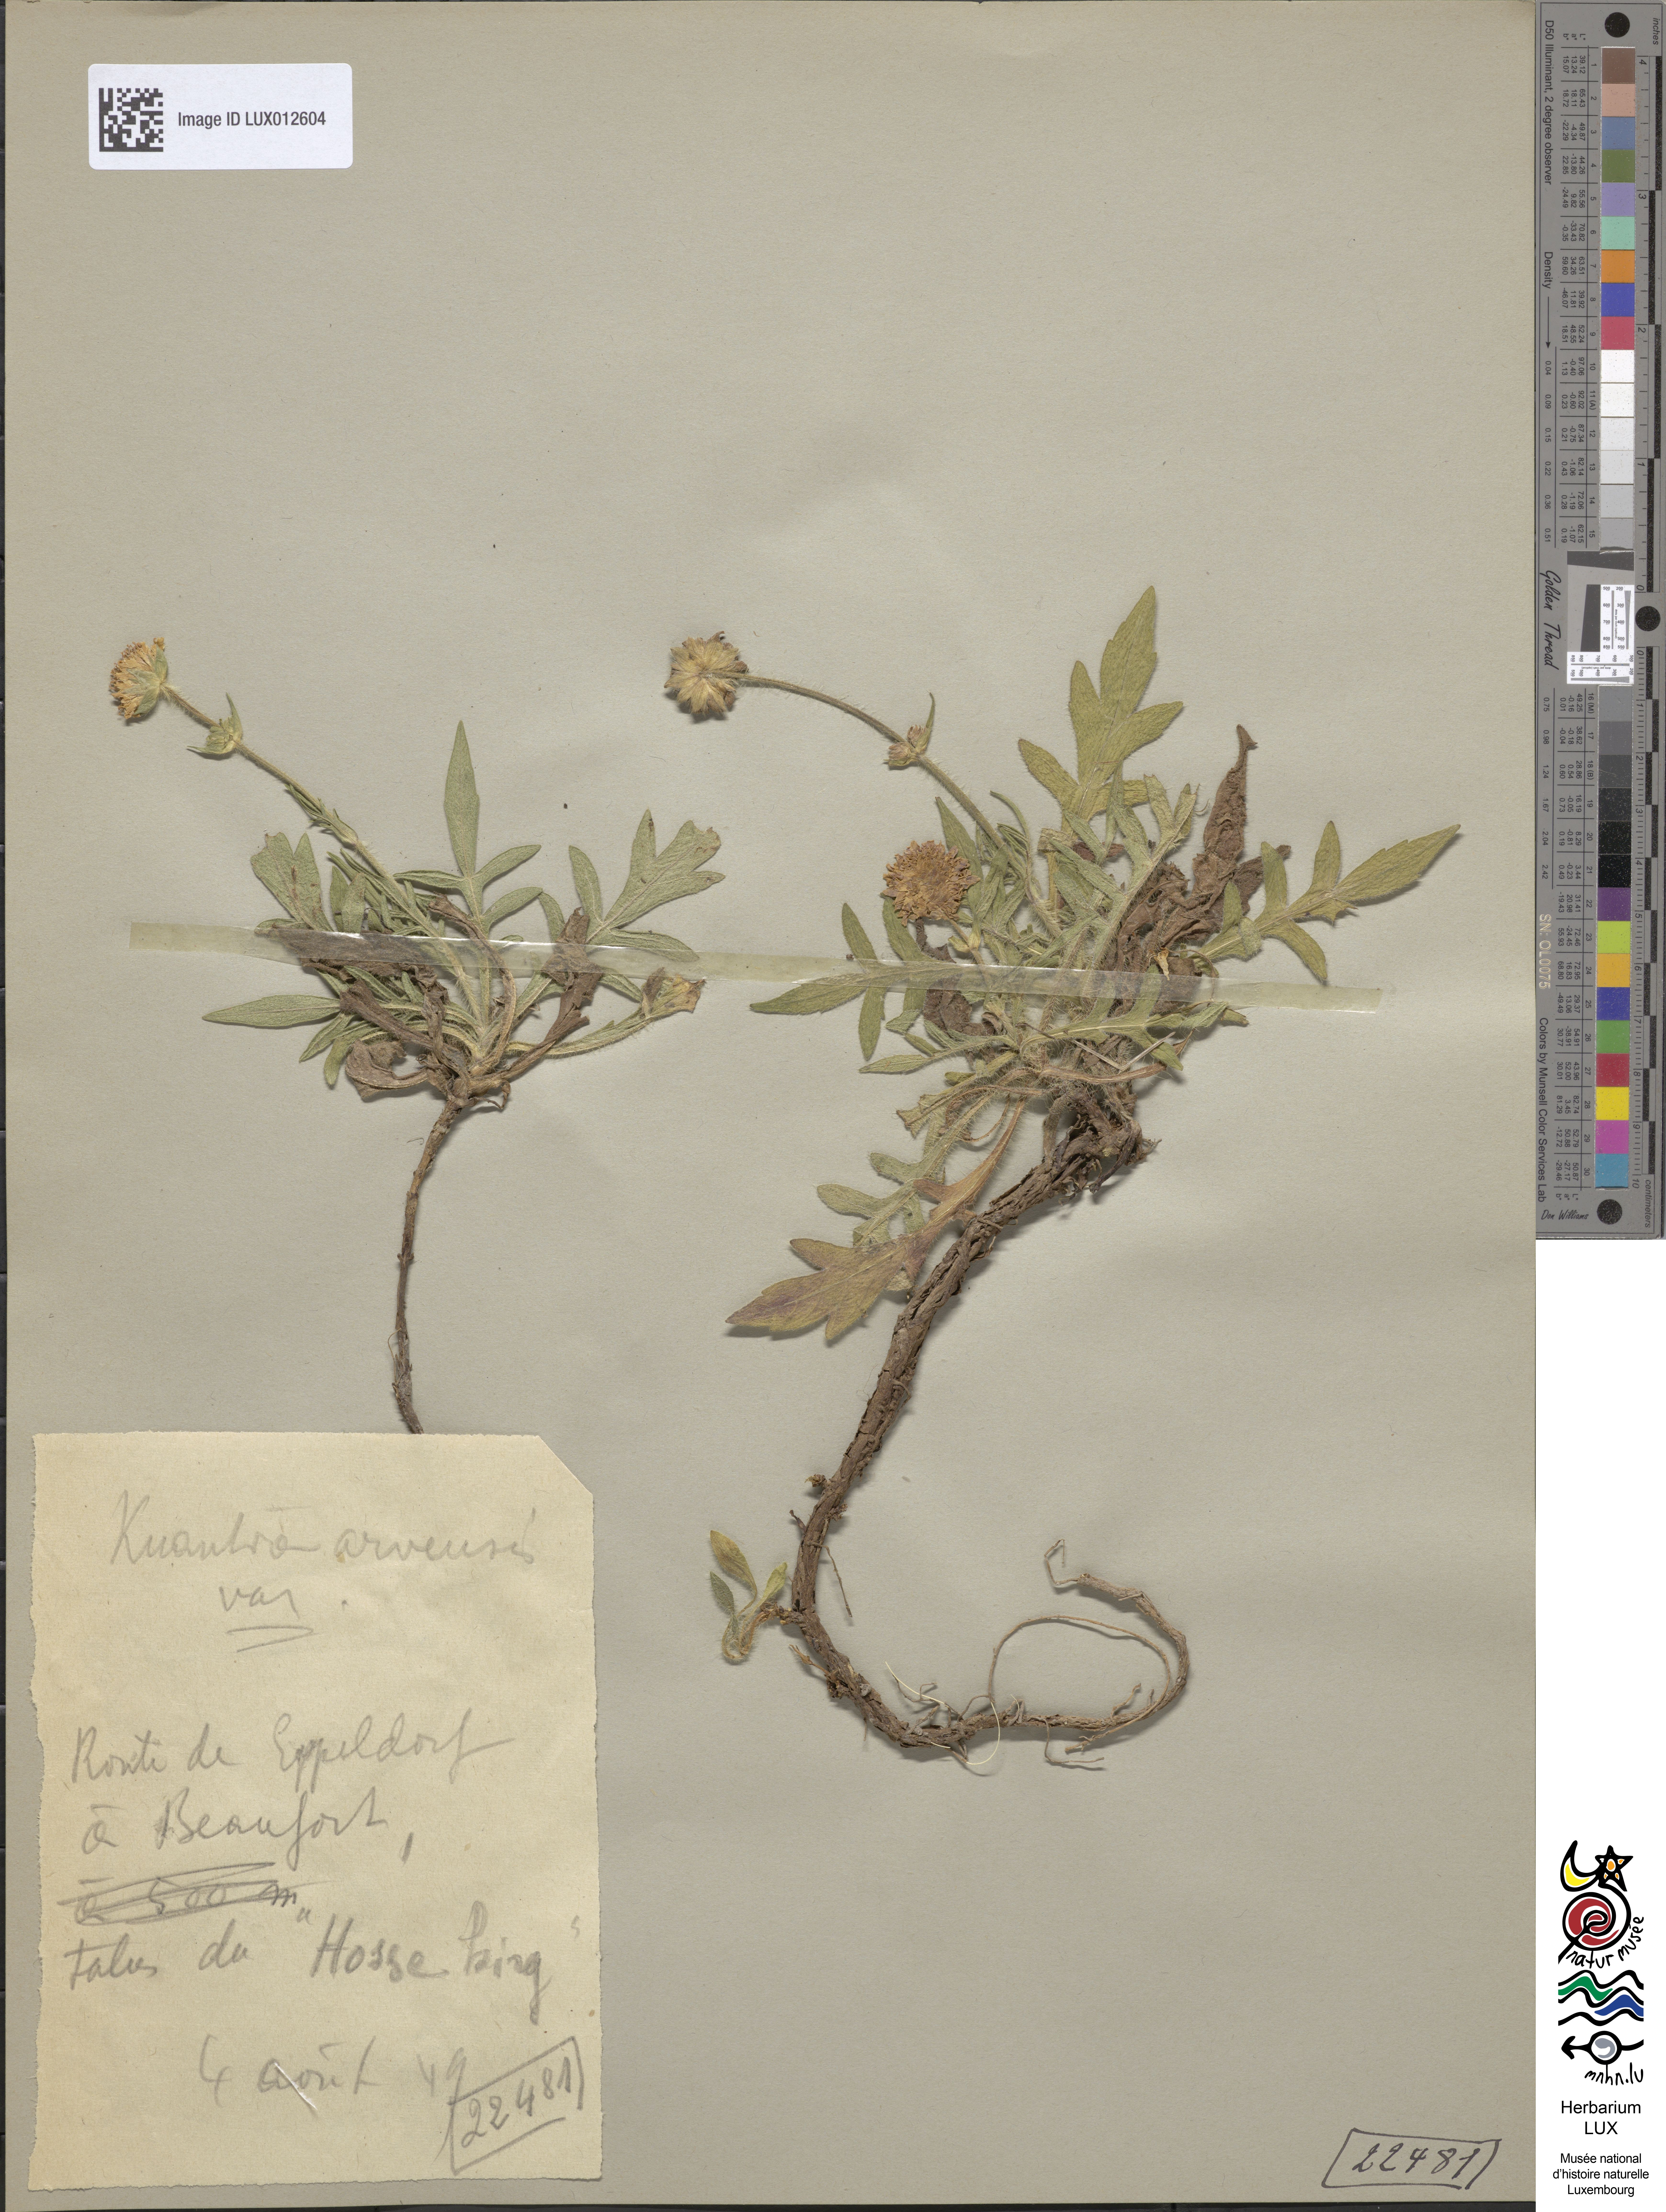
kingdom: Plantae
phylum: Tracheophyta
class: Magnoliopsida
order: Dipsacales
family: Caprifoliaceae
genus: Knautia
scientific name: Knautia arvensis
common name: Field scabiosa
